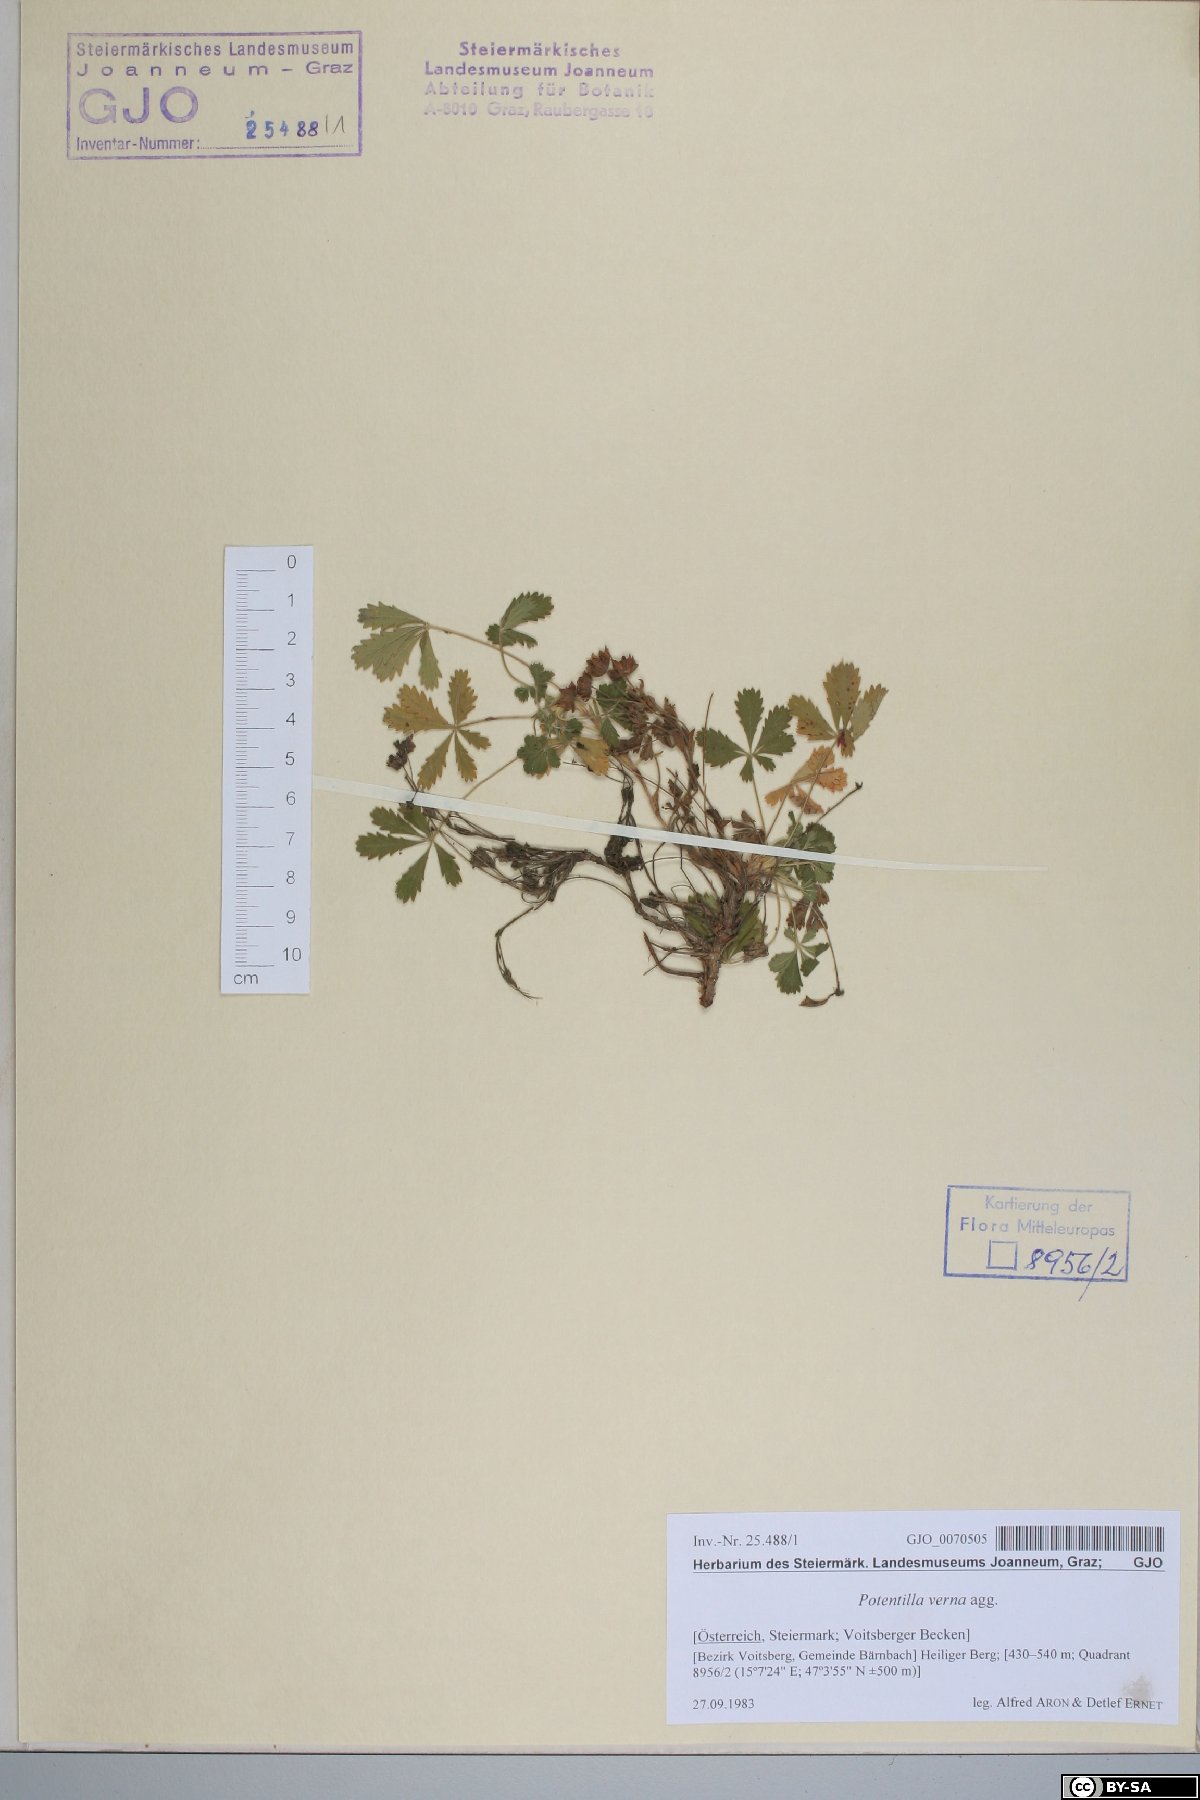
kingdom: Plantae
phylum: Tracheophyta
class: Magnoliopsida
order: Rosales
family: Rosaceae
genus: Potentilla
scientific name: Potentilla verna
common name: Spring cinquefoil
